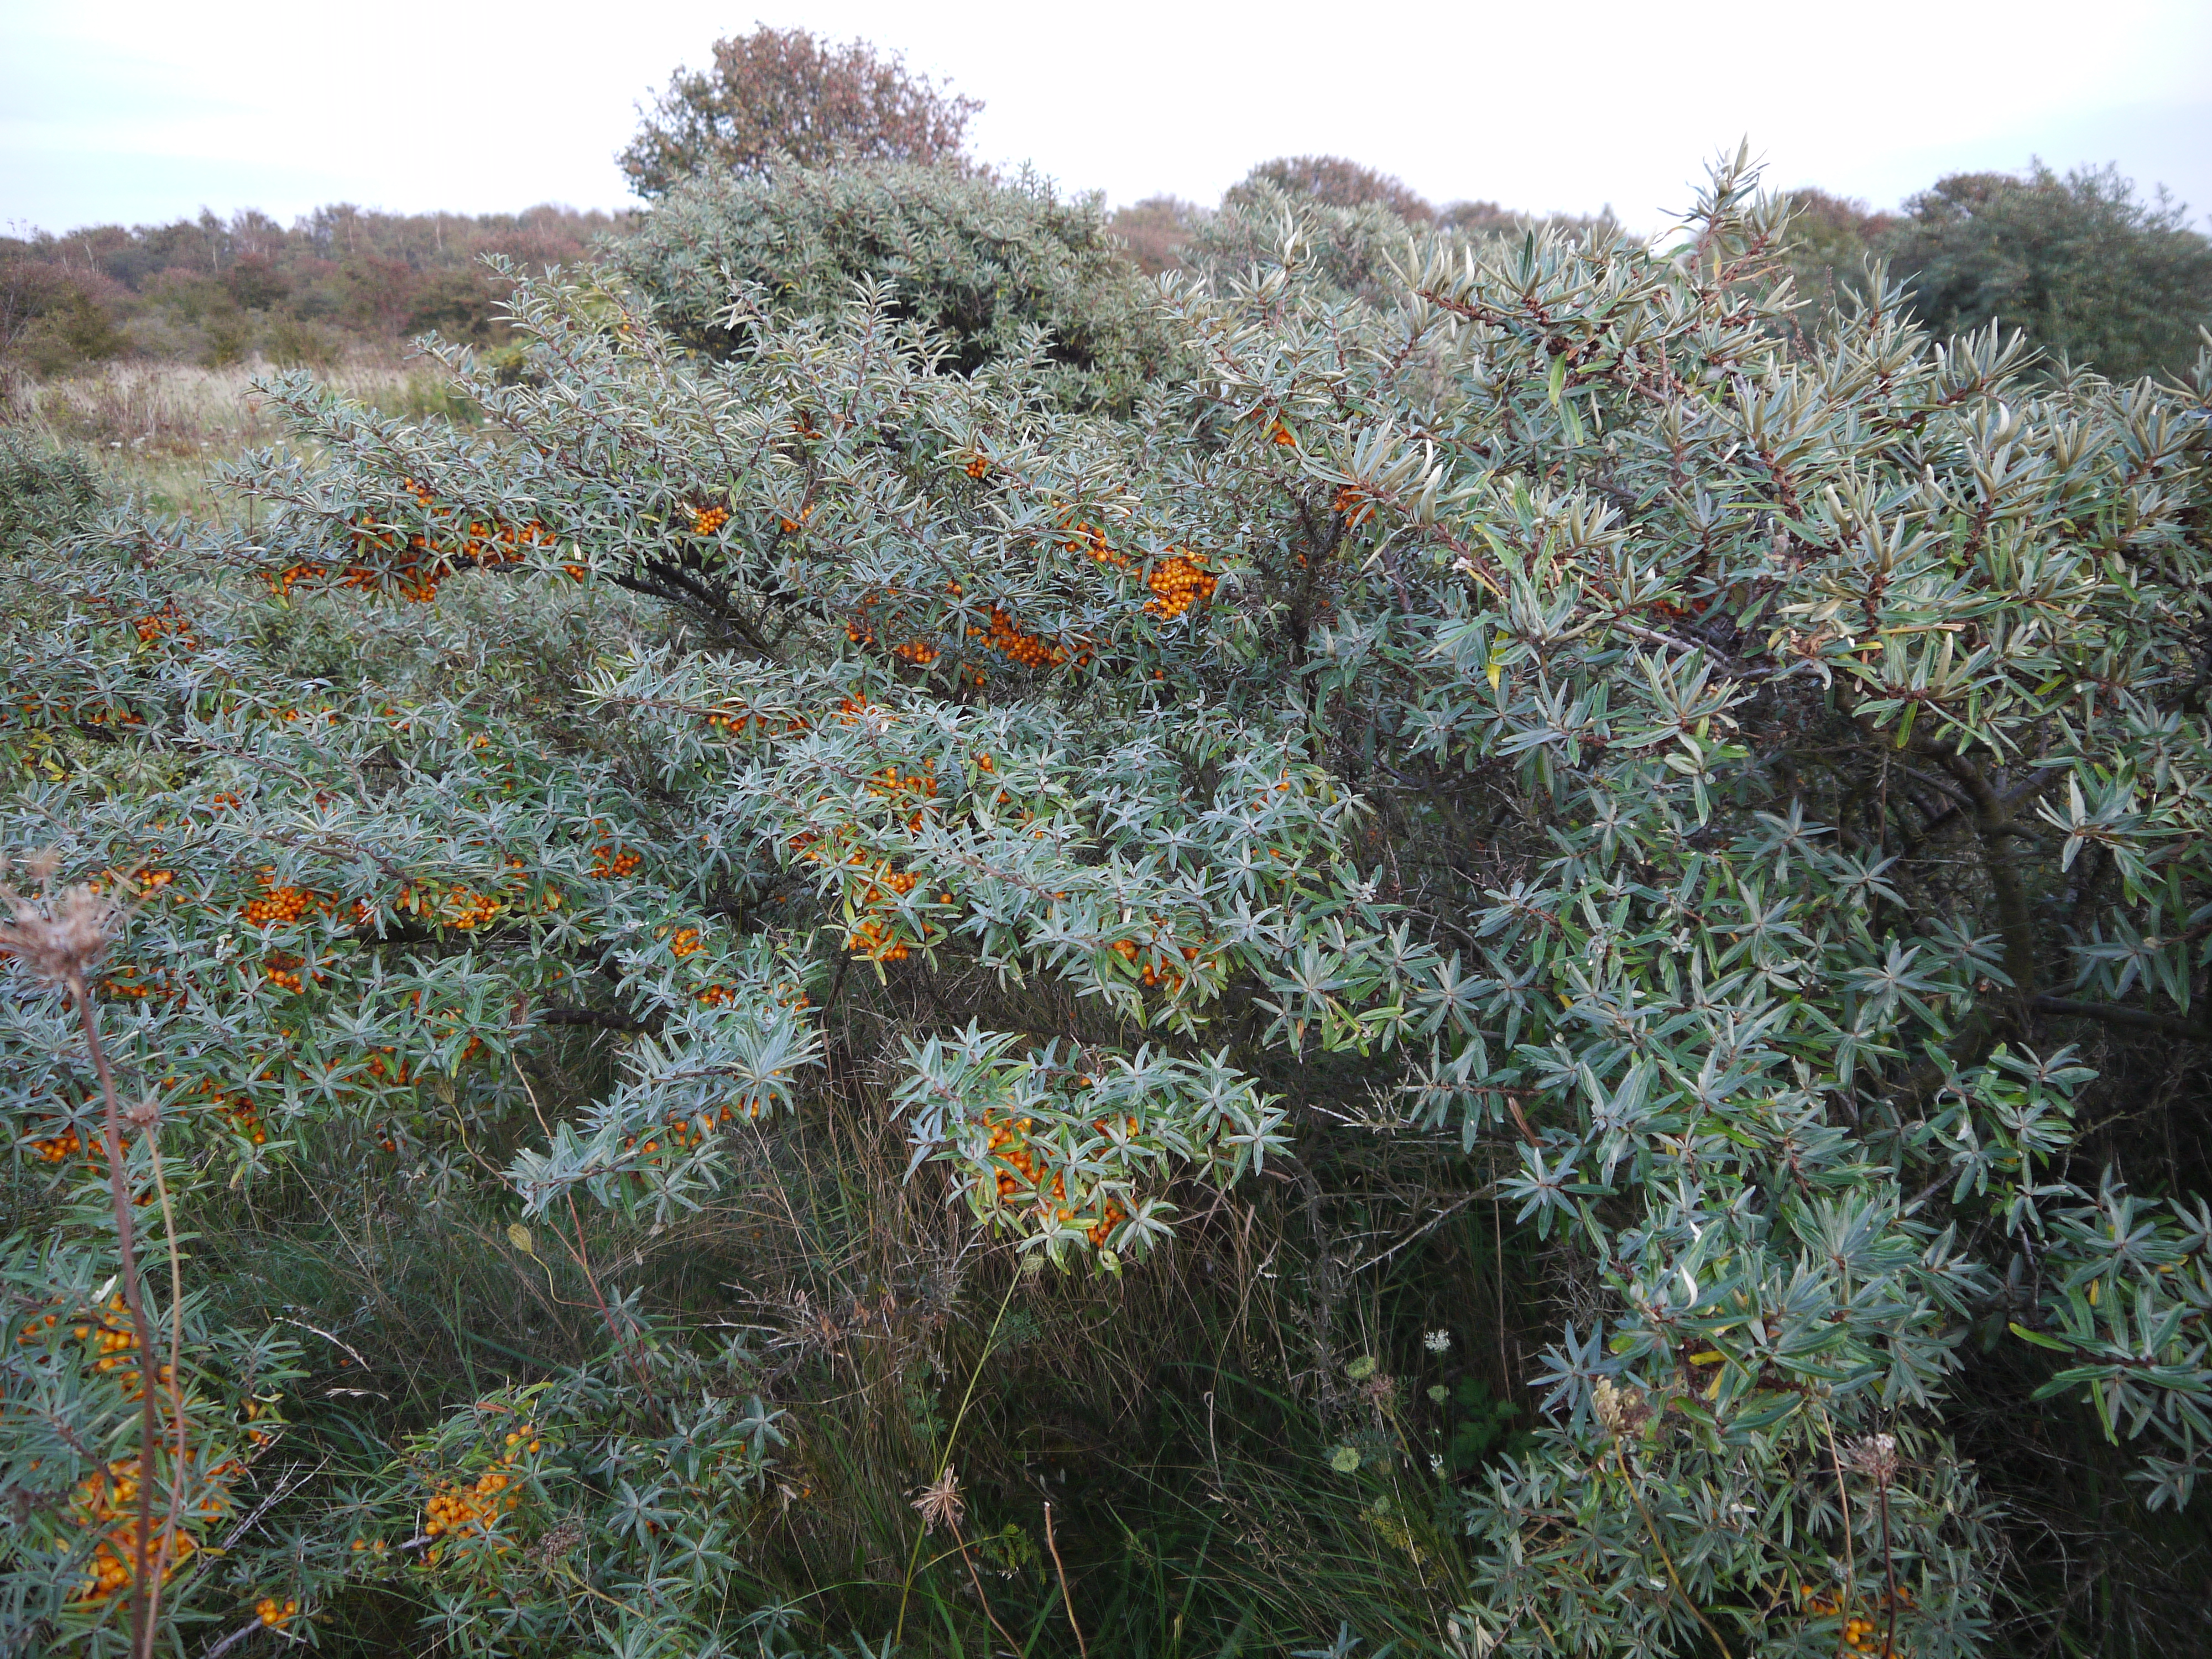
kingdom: Plantae
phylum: Tracheophyta
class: Magnoliopsida
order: Rosales
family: Elaeagnaceae
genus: Hippophae
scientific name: Hippophae rhamnoides
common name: Sea-buckthorn
